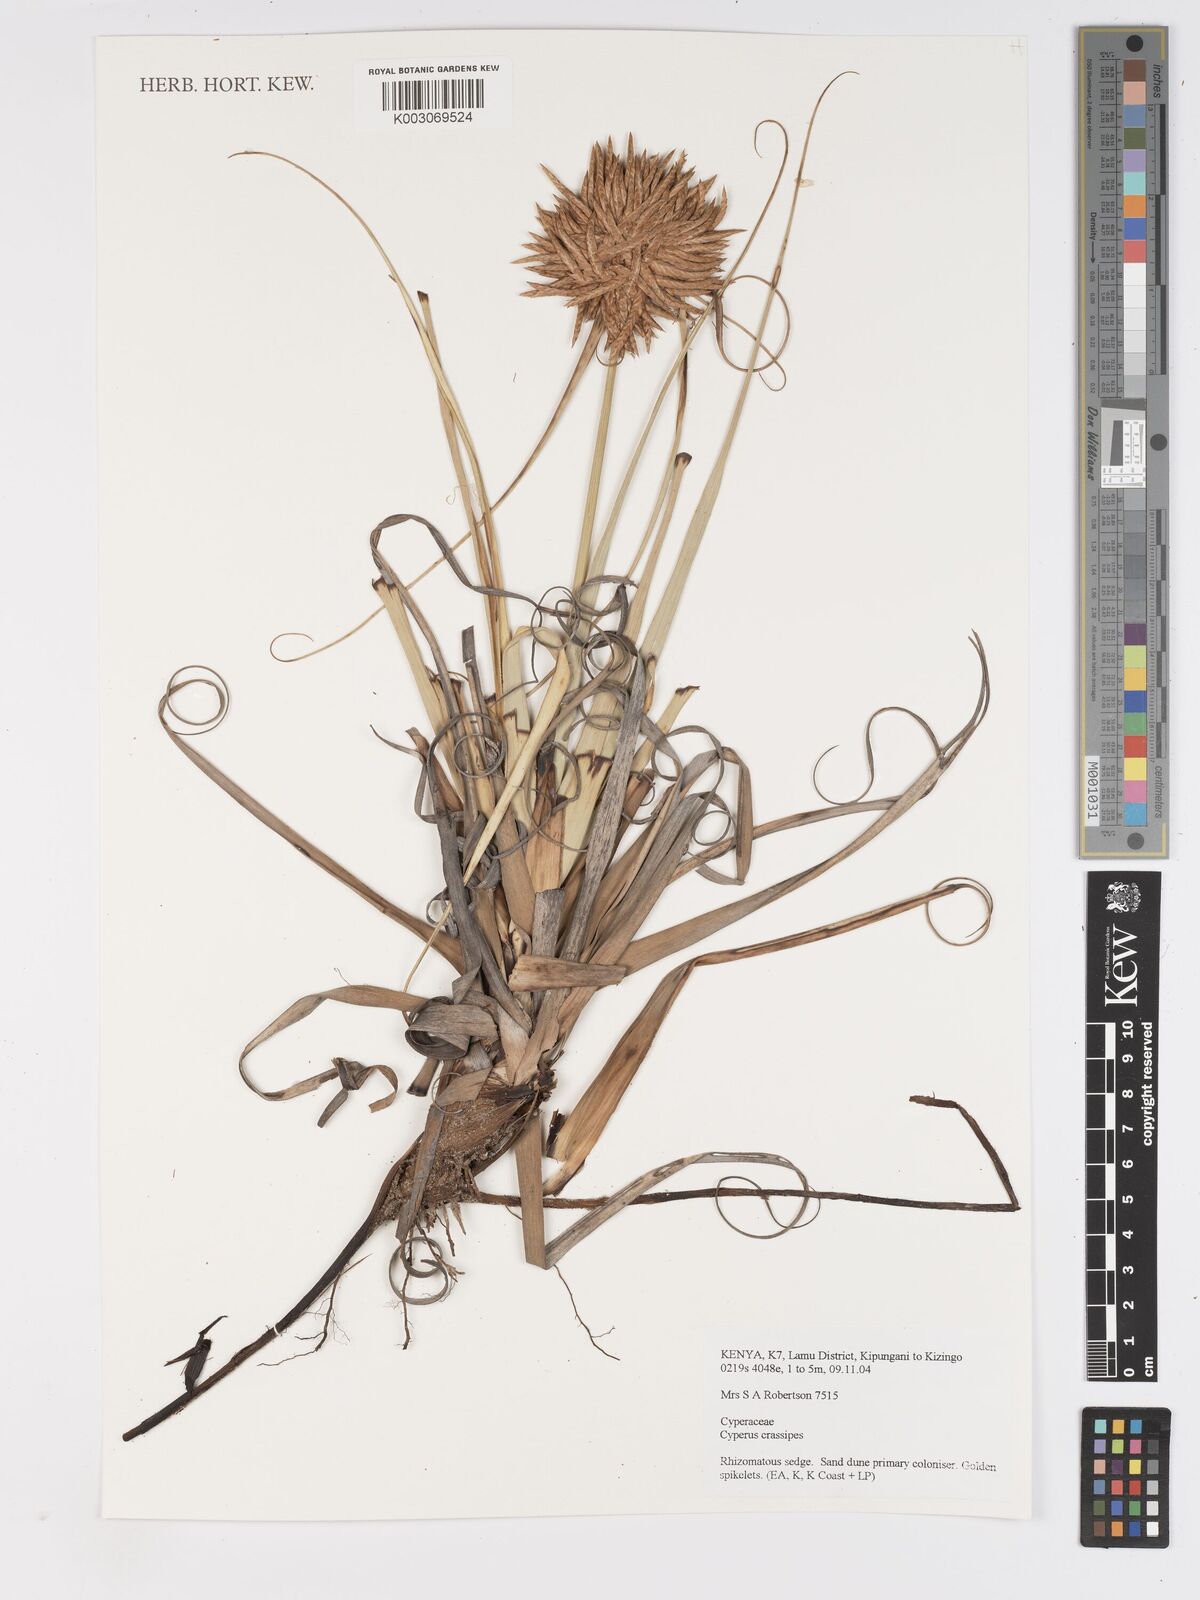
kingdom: Plantae
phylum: Tracheophyta
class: Liliopsida
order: Poales
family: Cyperaceae
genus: Cyperus
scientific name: Cyperus crassipes
